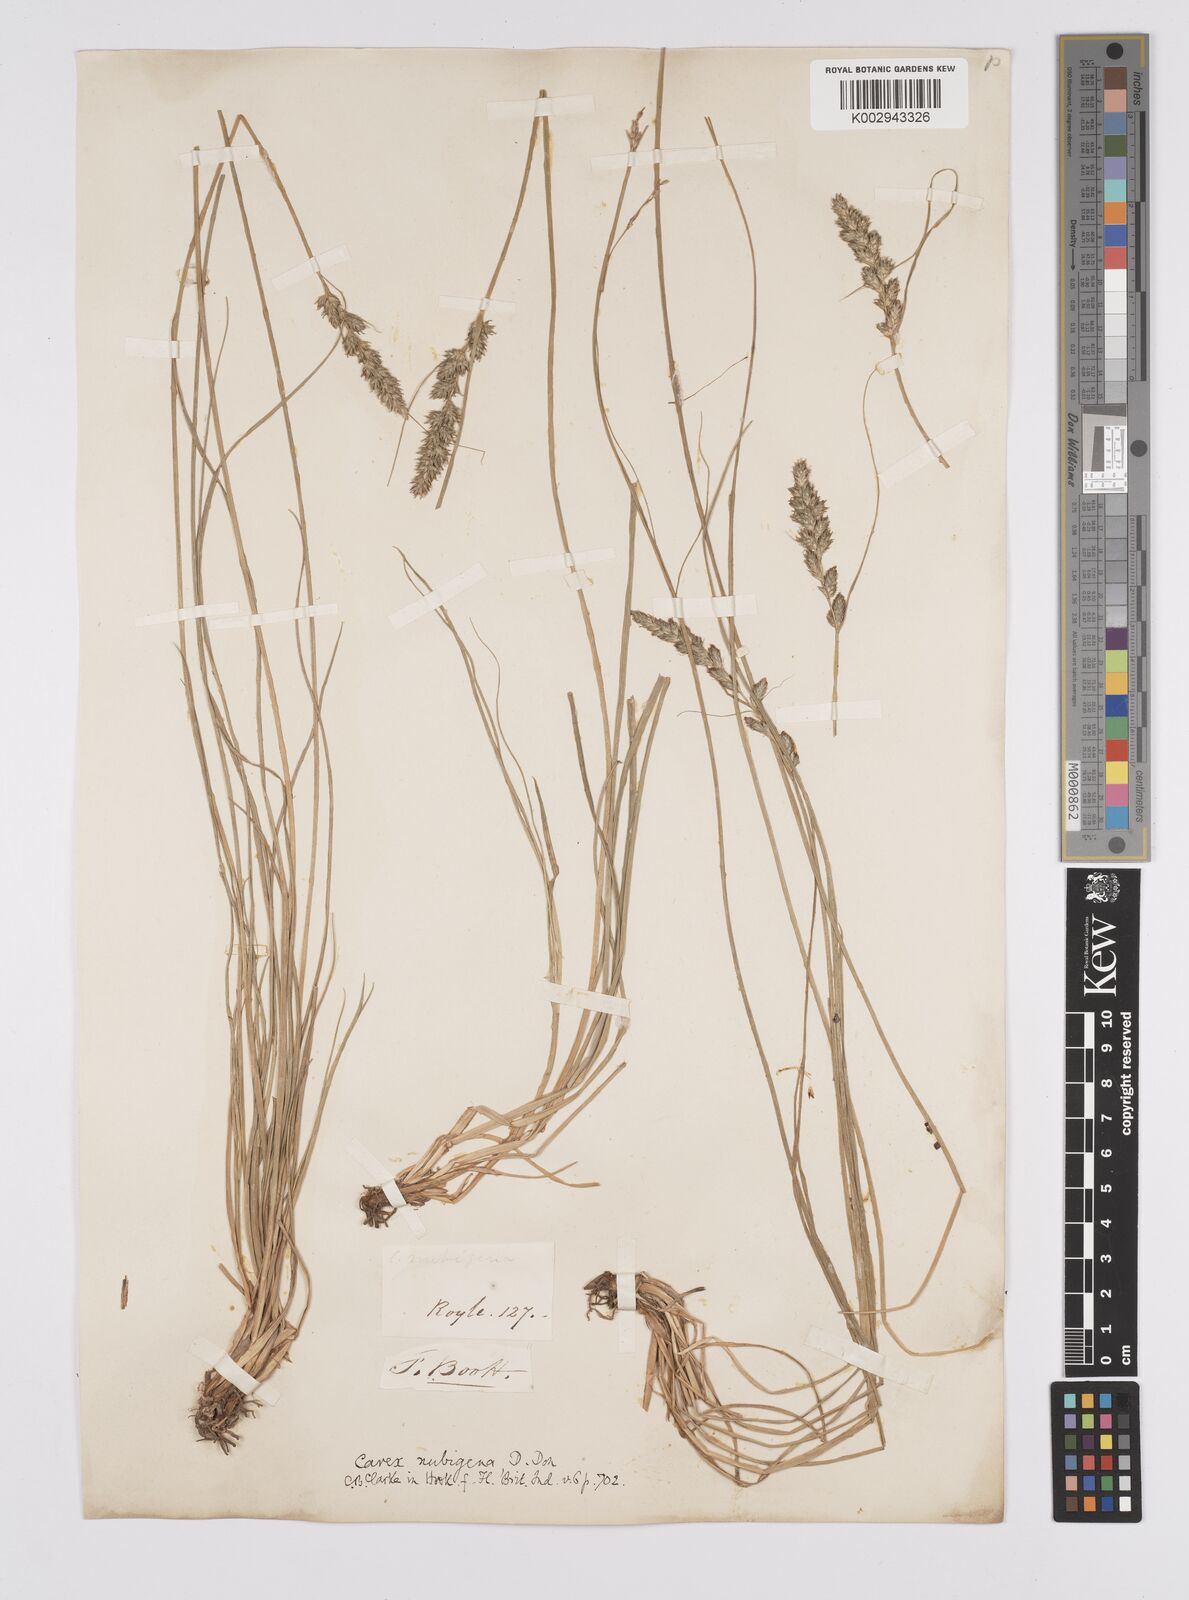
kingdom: Plantae
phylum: Tracheophyta
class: Liliopsida
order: Poales
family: Cyperaceae
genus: Carex
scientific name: Carex nubigena
